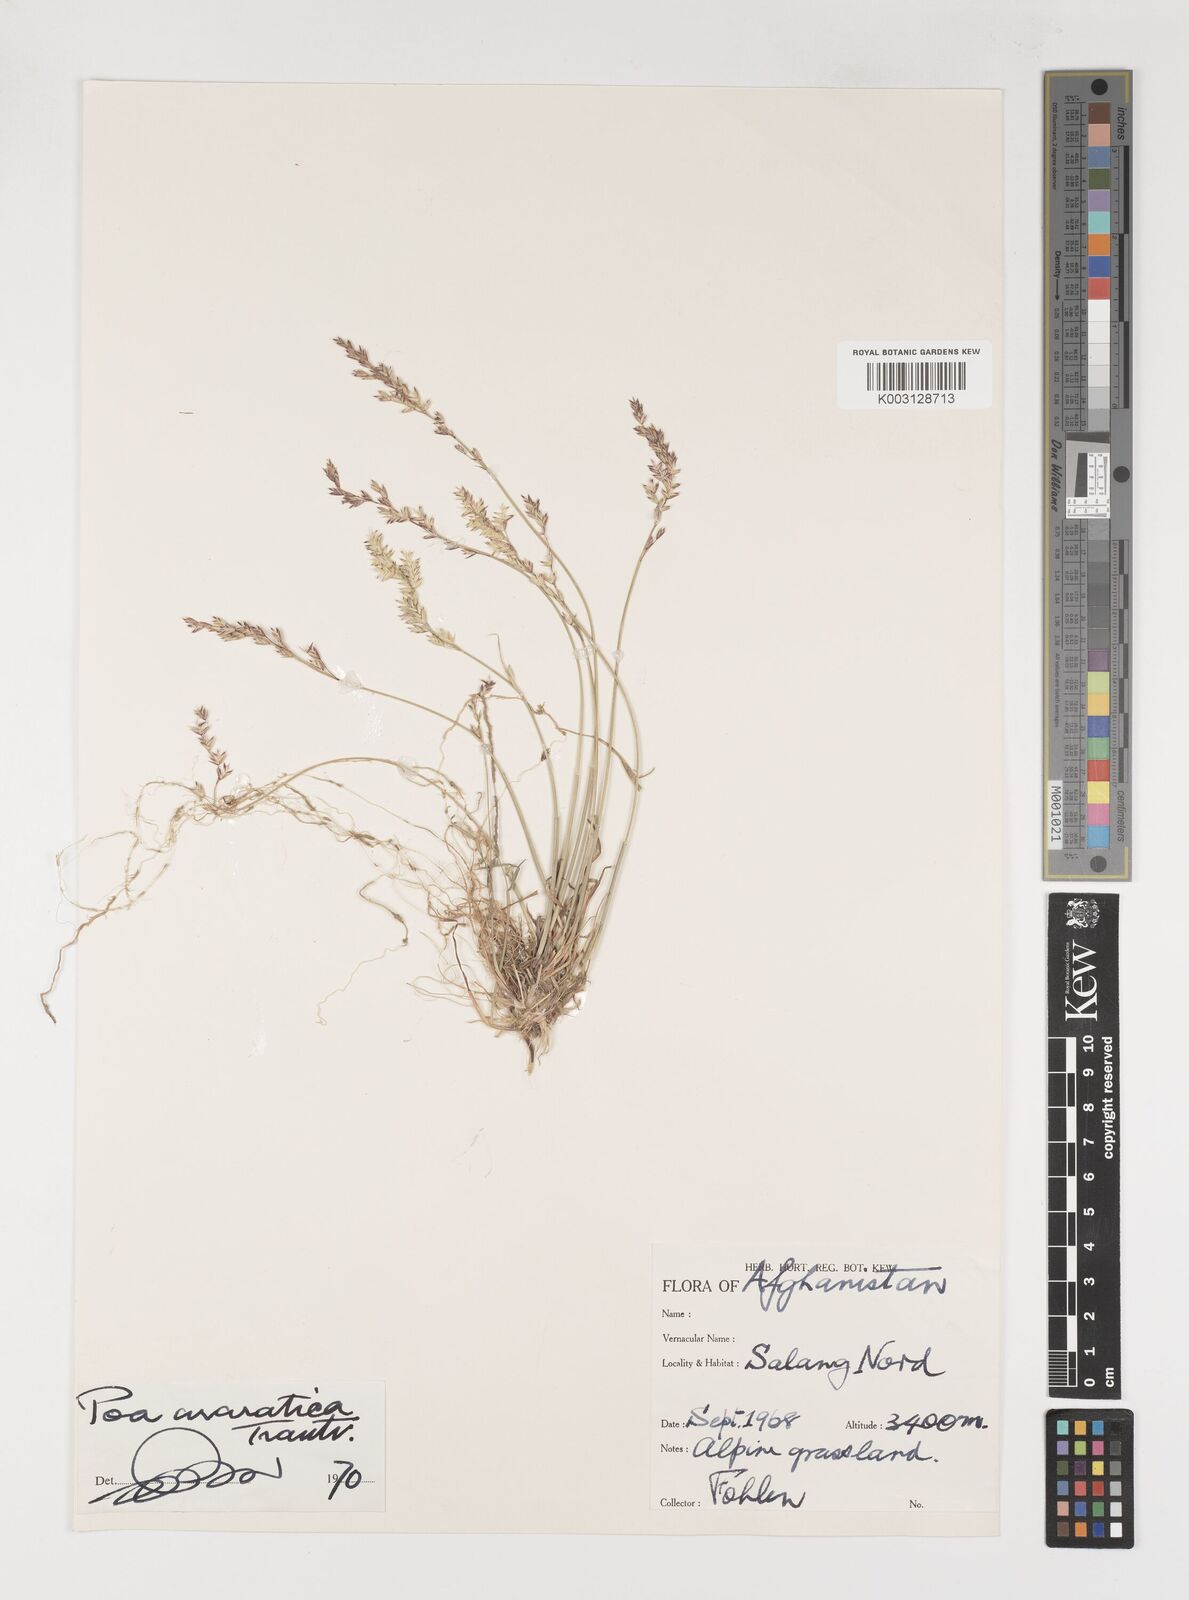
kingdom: Plantae
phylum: Tracheophyta
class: Liliopsida
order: Poales
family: Poaceae
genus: Poa
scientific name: Poa araratica
